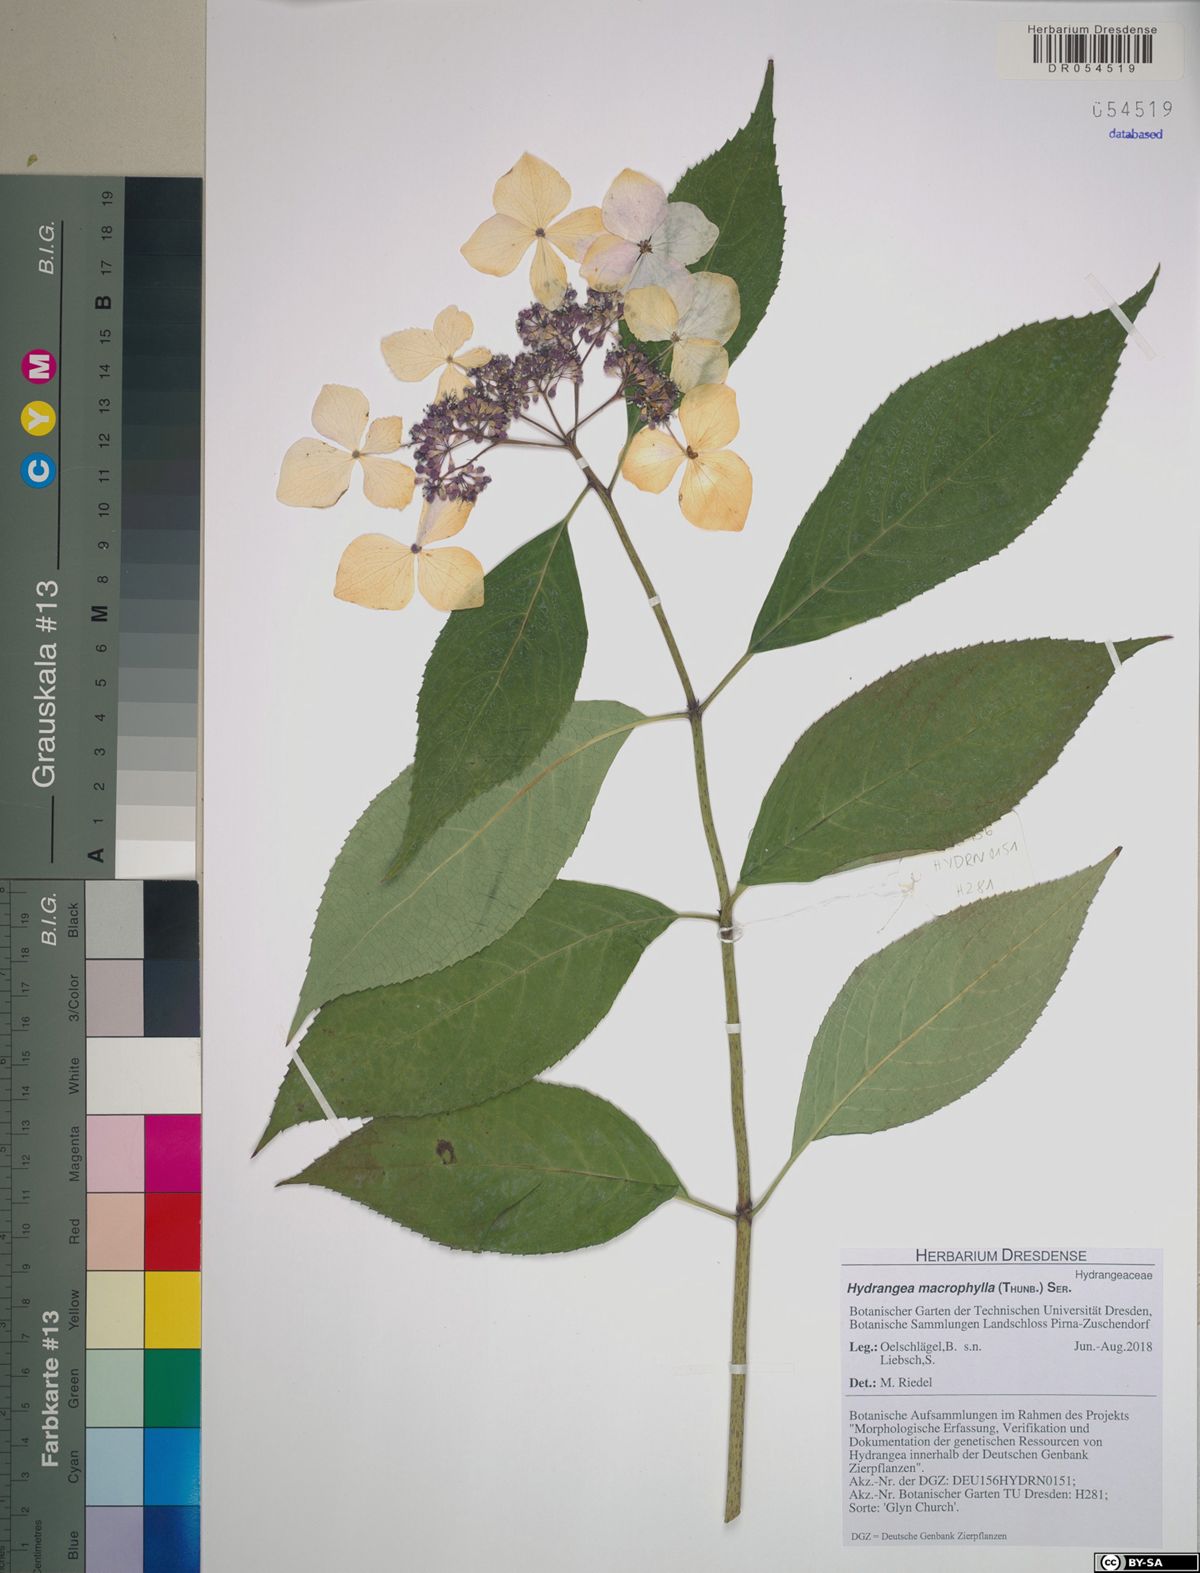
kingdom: Plantae
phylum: Tracheophyta
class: Magnoliopsida
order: Cornales
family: Hydrangeaceae
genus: Hydrangea
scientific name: Hydrangea macrophylla
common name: Hydrangea
